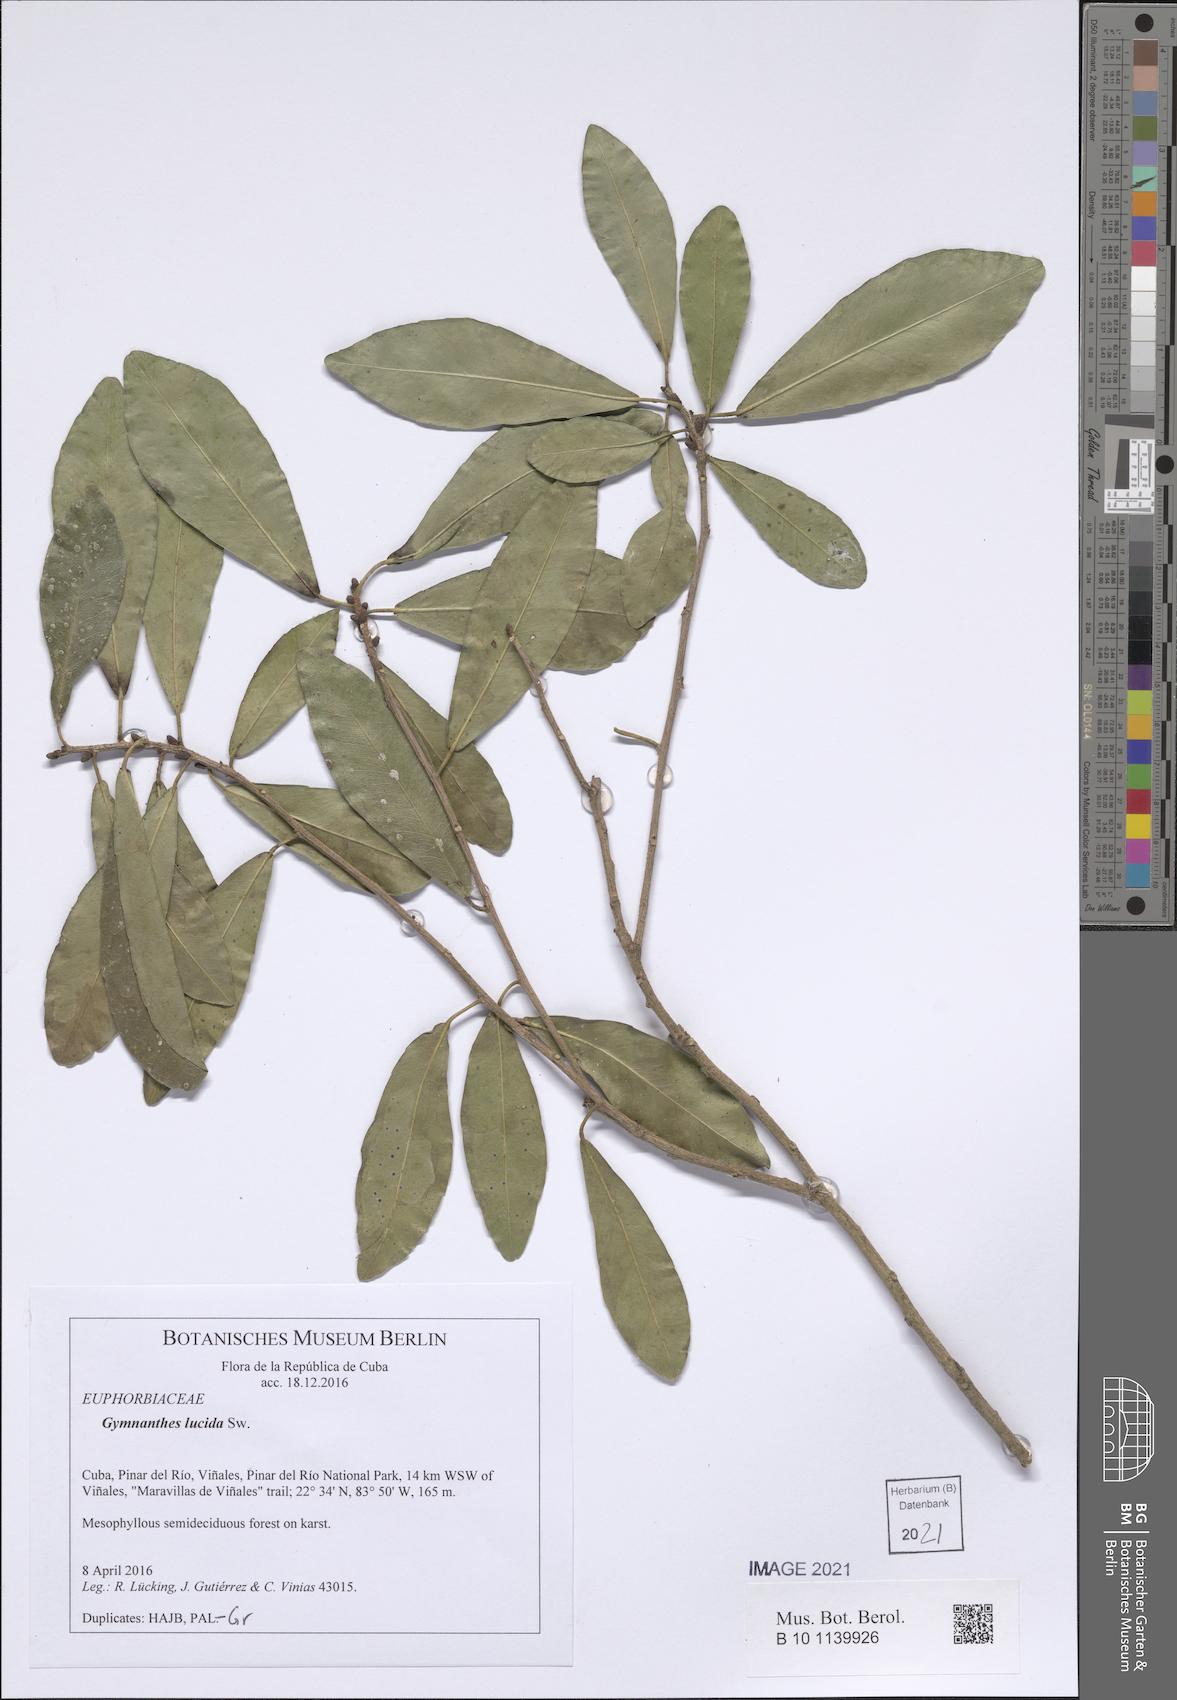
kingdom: Plantae
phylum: Tracheophyta
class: Magnoliopsida
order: Malpighiales
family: Euphorbiaceae
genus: Gymnanthes
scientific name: Gymnanthes lucida
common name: Oysterwood
